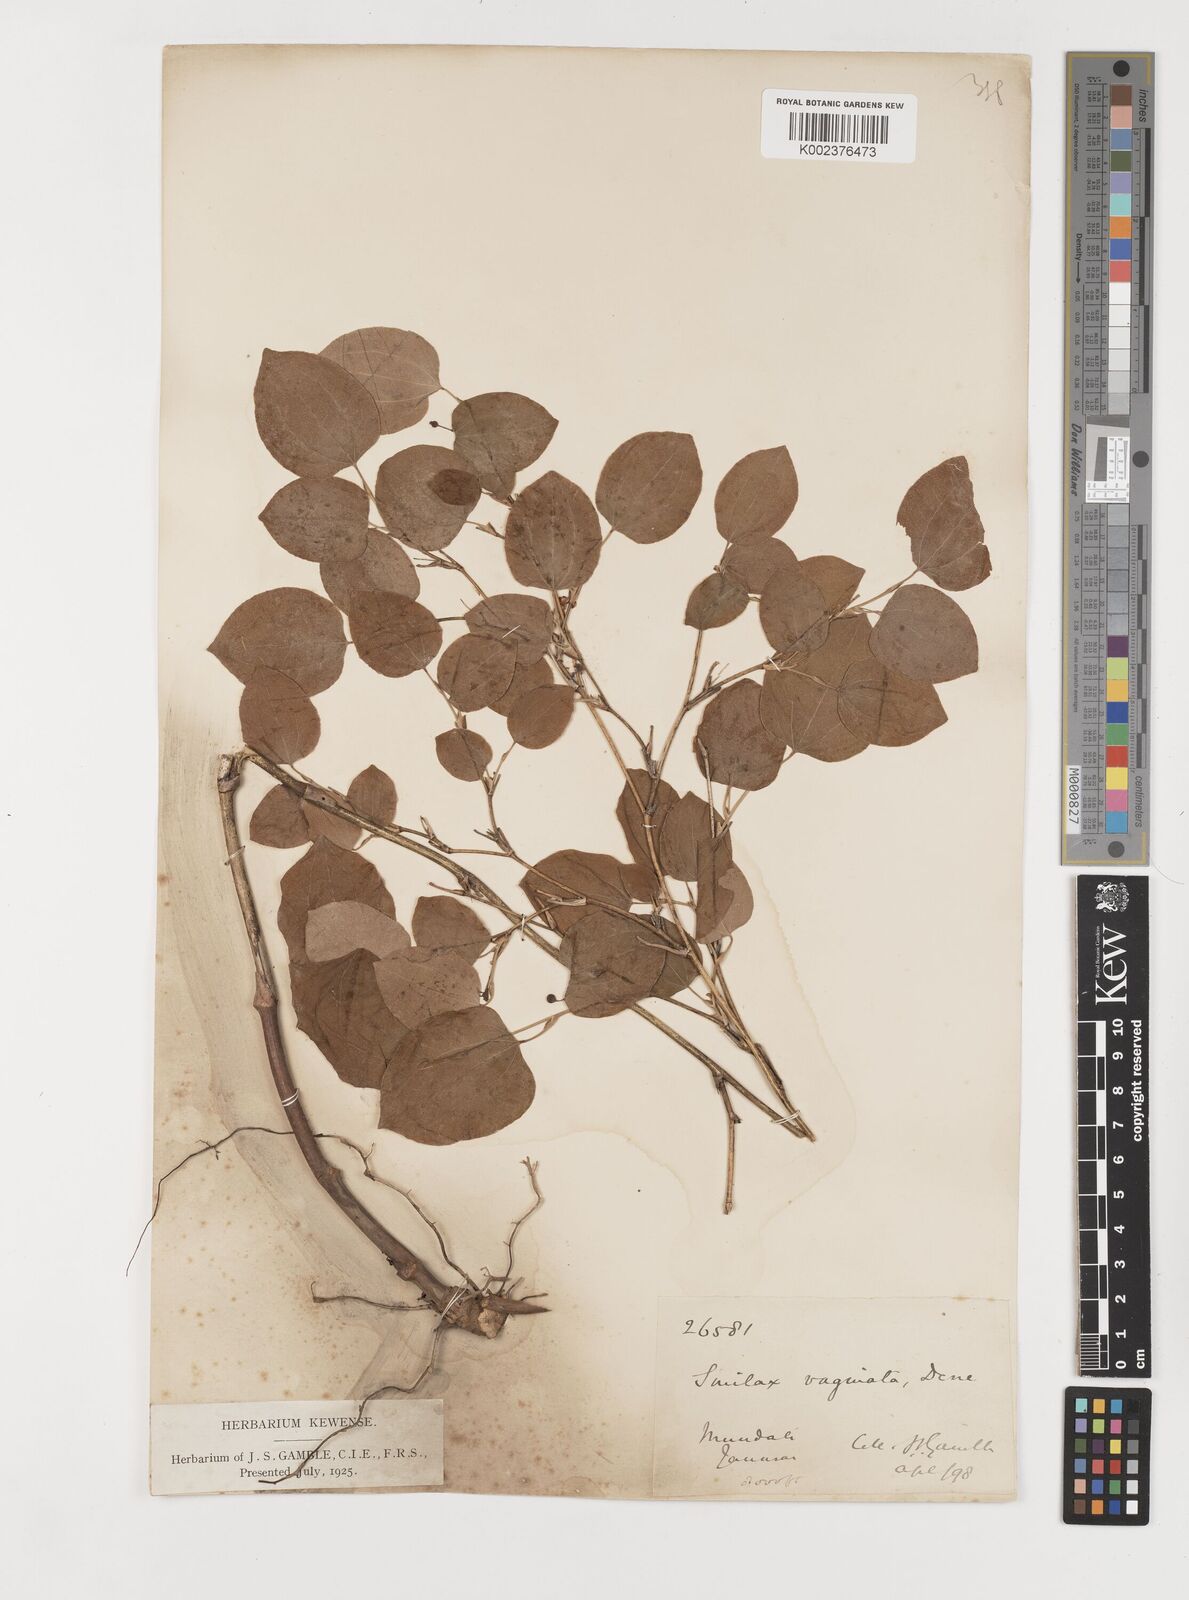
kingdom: Plantae
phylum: Tracheophyta
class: Liliopsida
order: Liliales
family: Smilacaceae
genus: Smilax
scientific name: Smilax vaginata
